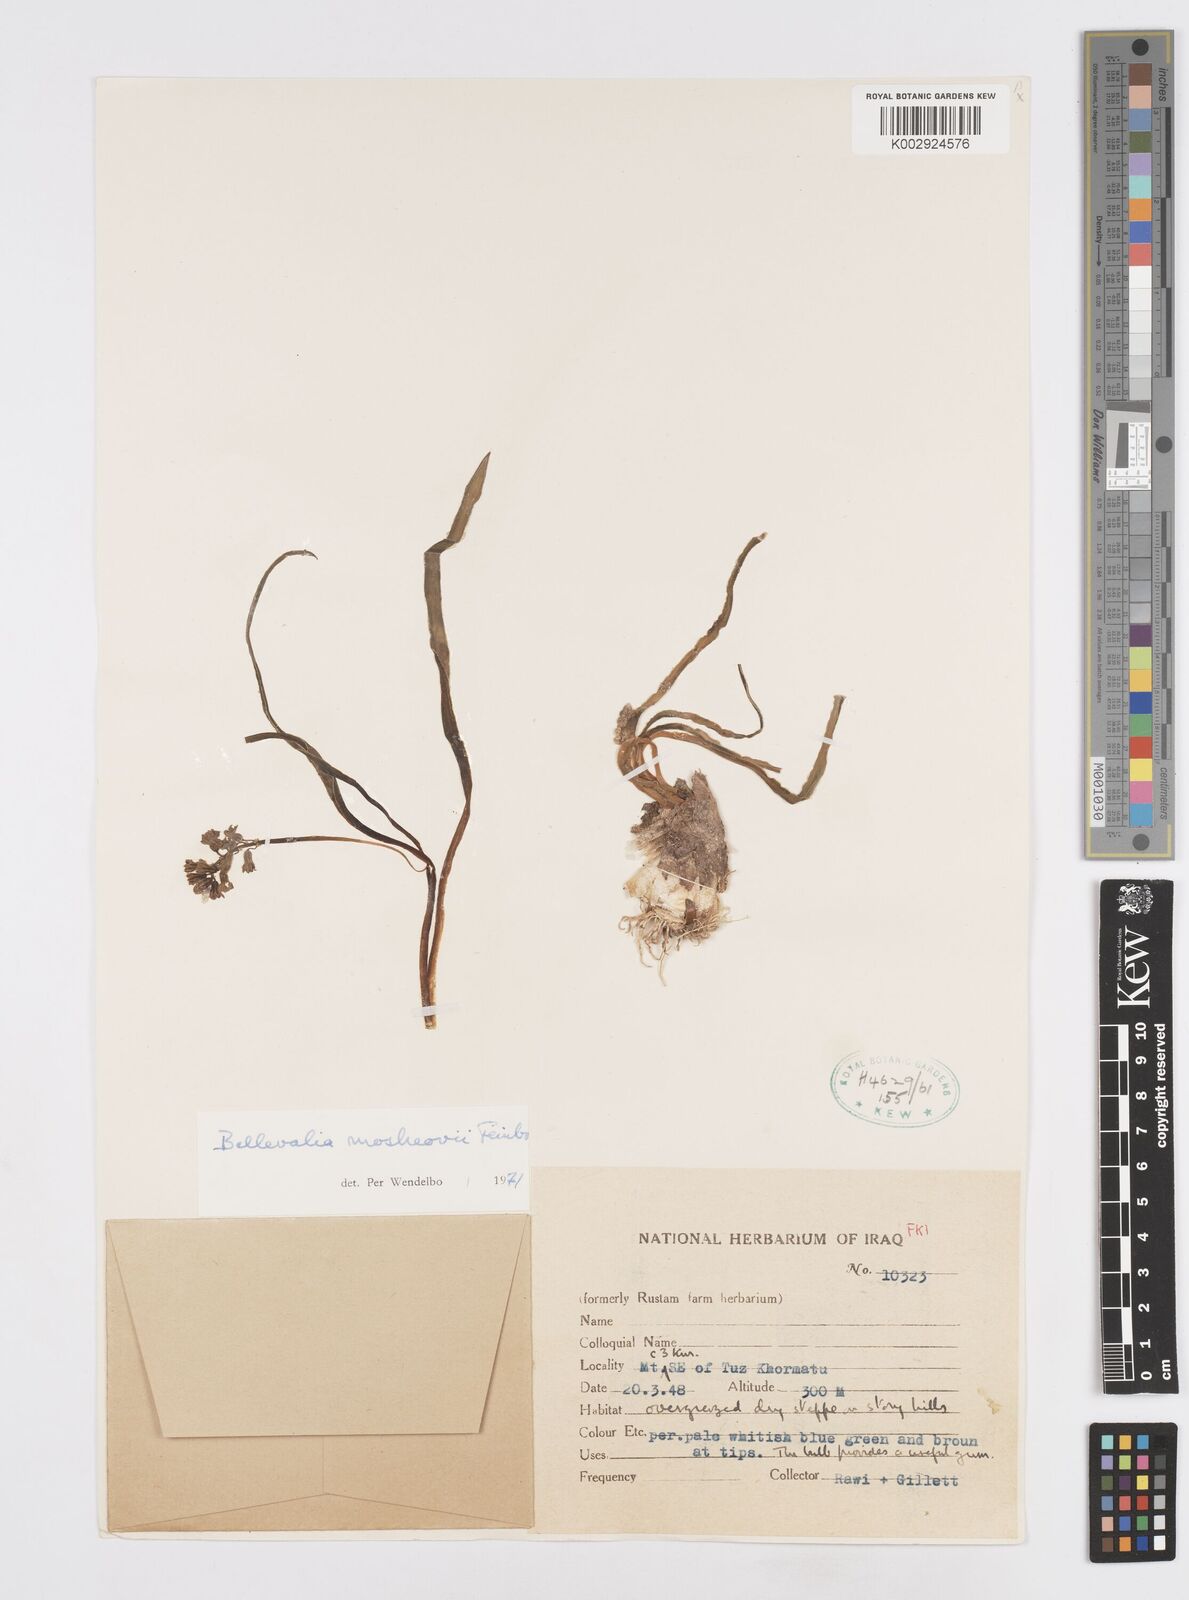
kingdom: Plantae
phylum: Tracheophyta
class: Liliopsida
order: Asparagales
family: Asparagaceae
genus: Bellevalia
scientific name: Bellevalia mosheovii
